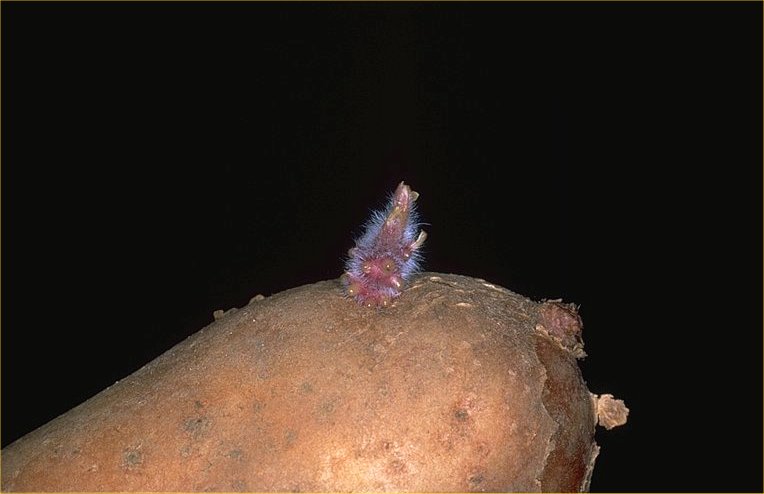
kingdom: Plantae
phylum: Tracheophyta
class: Magnoliopsida
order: Solanales
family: Solanaceae
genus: Solanum
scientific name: Solanum tuberosum
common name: Potato
